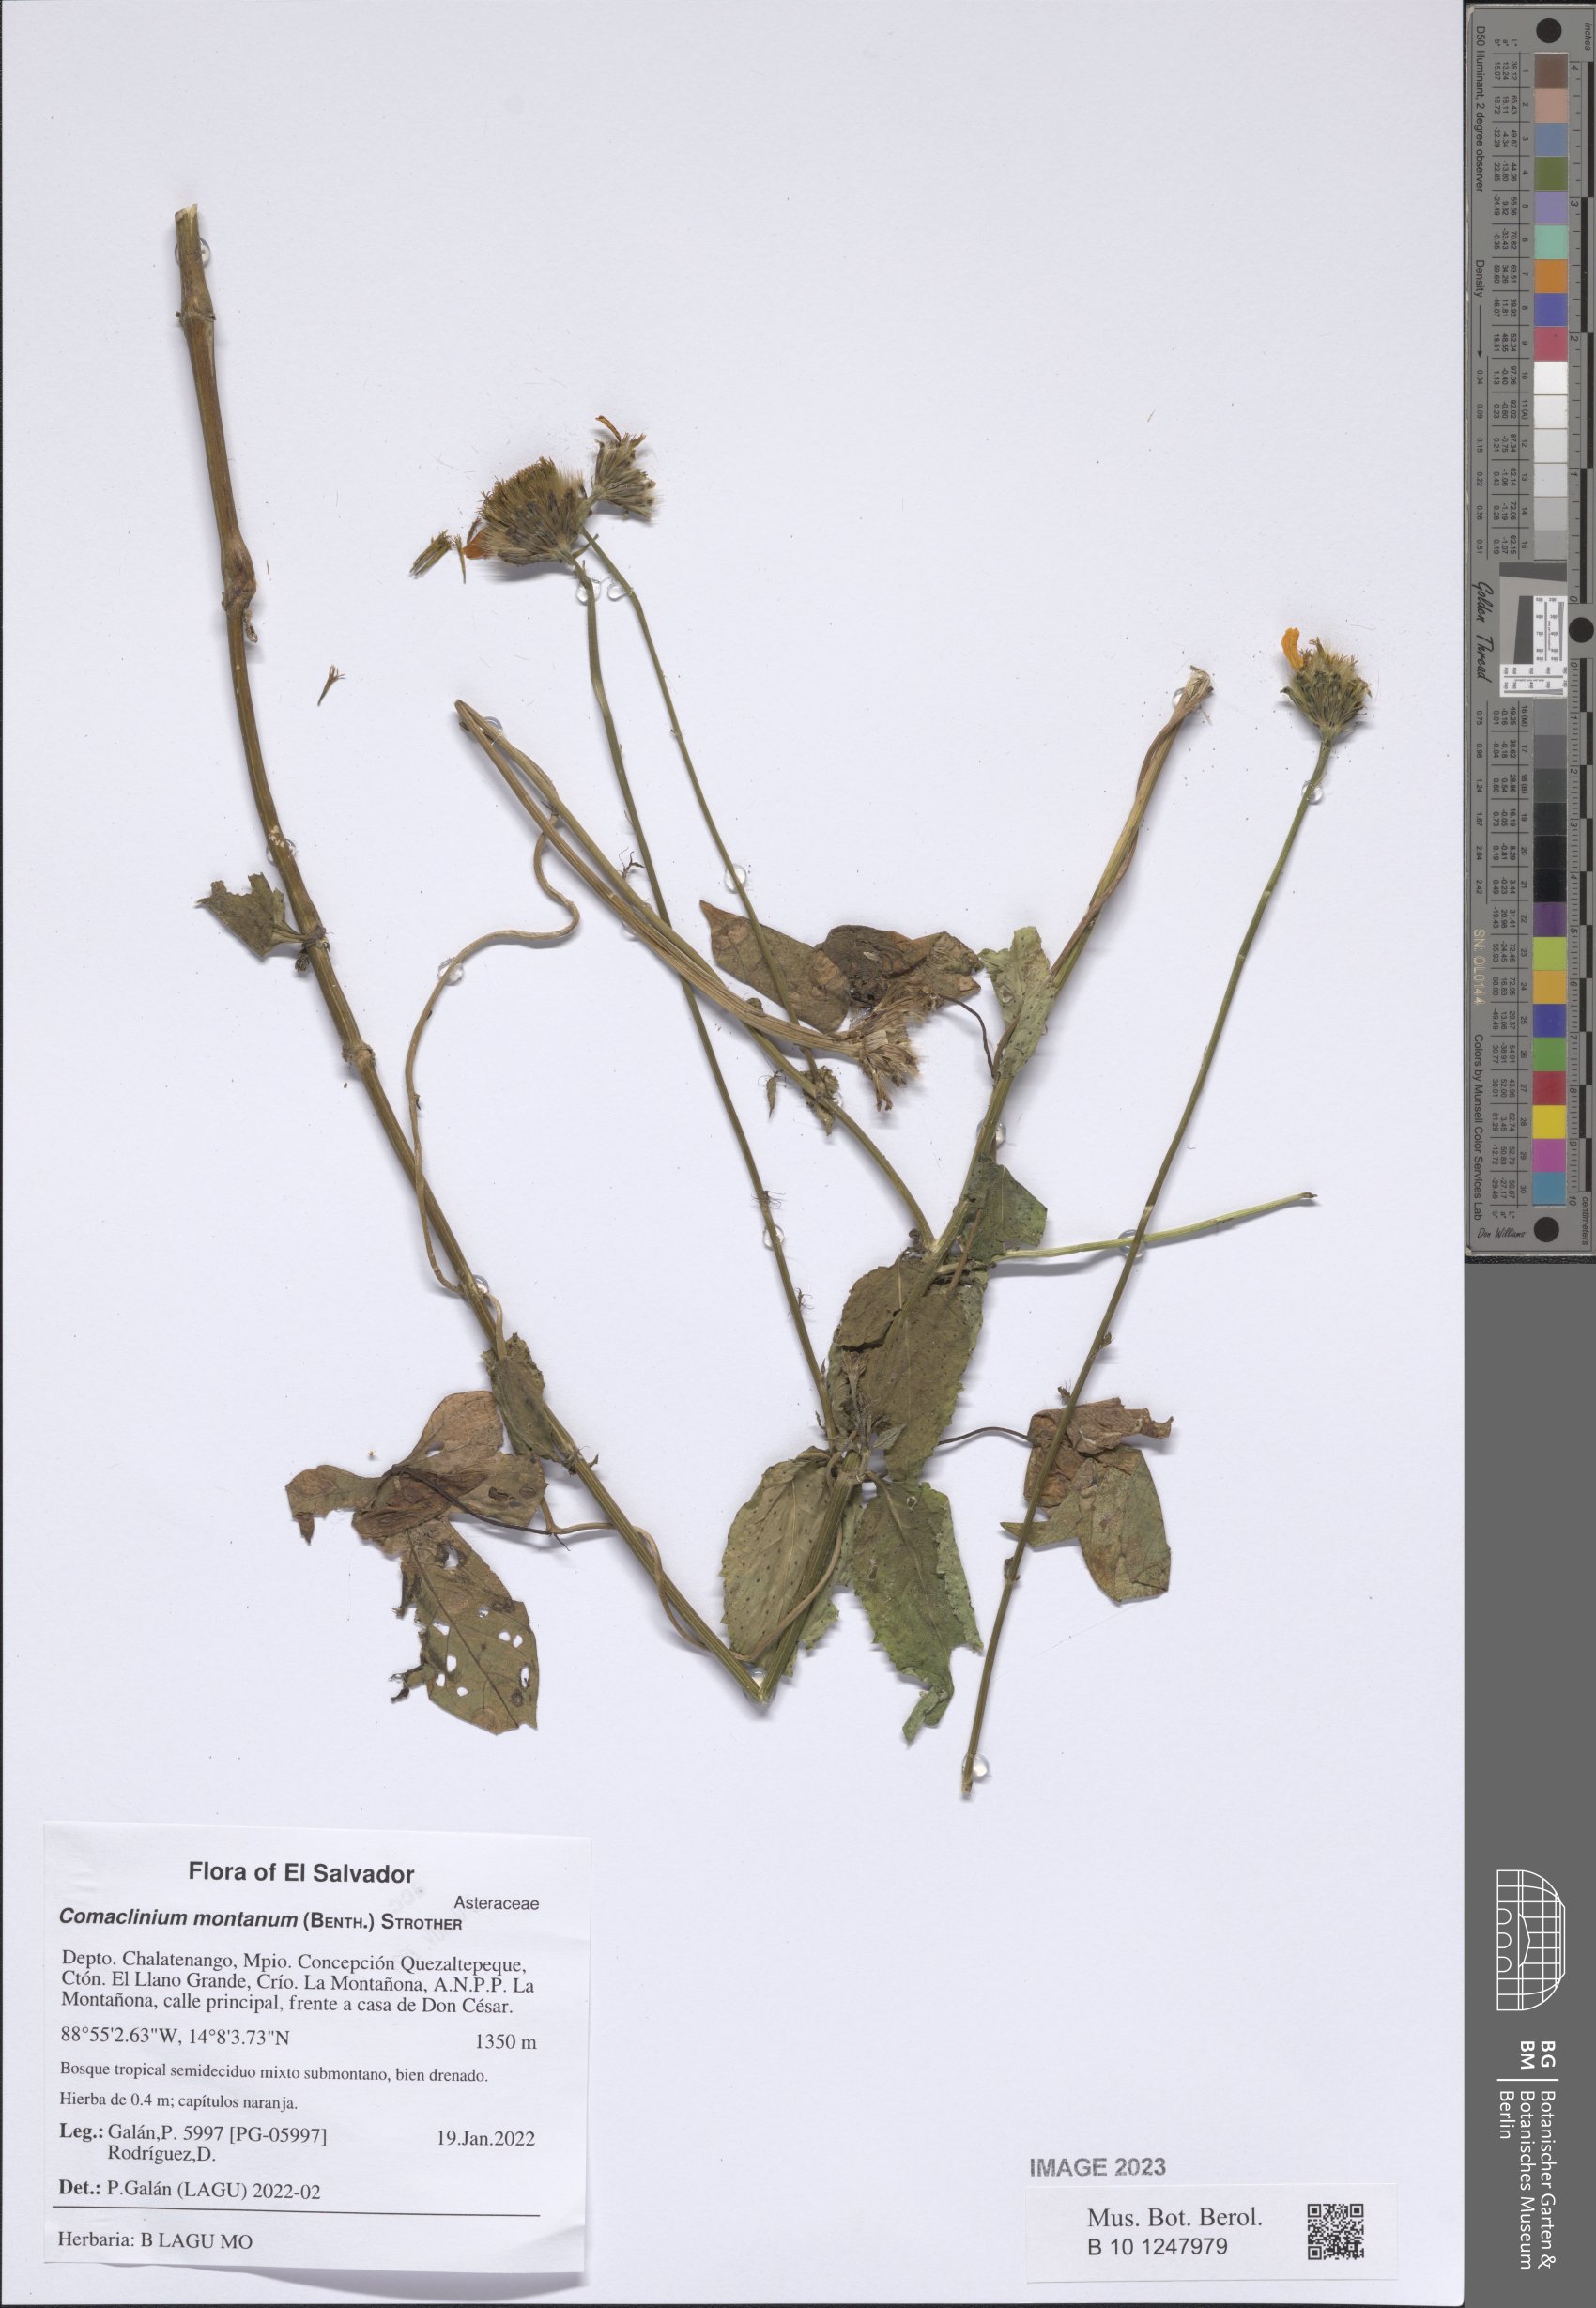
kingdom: Plantae
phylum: Tracheophyta
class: Magnoliopsida
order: Asterales
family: Asteraceae
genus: Comaclinium
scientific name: Comaclinium montanum
